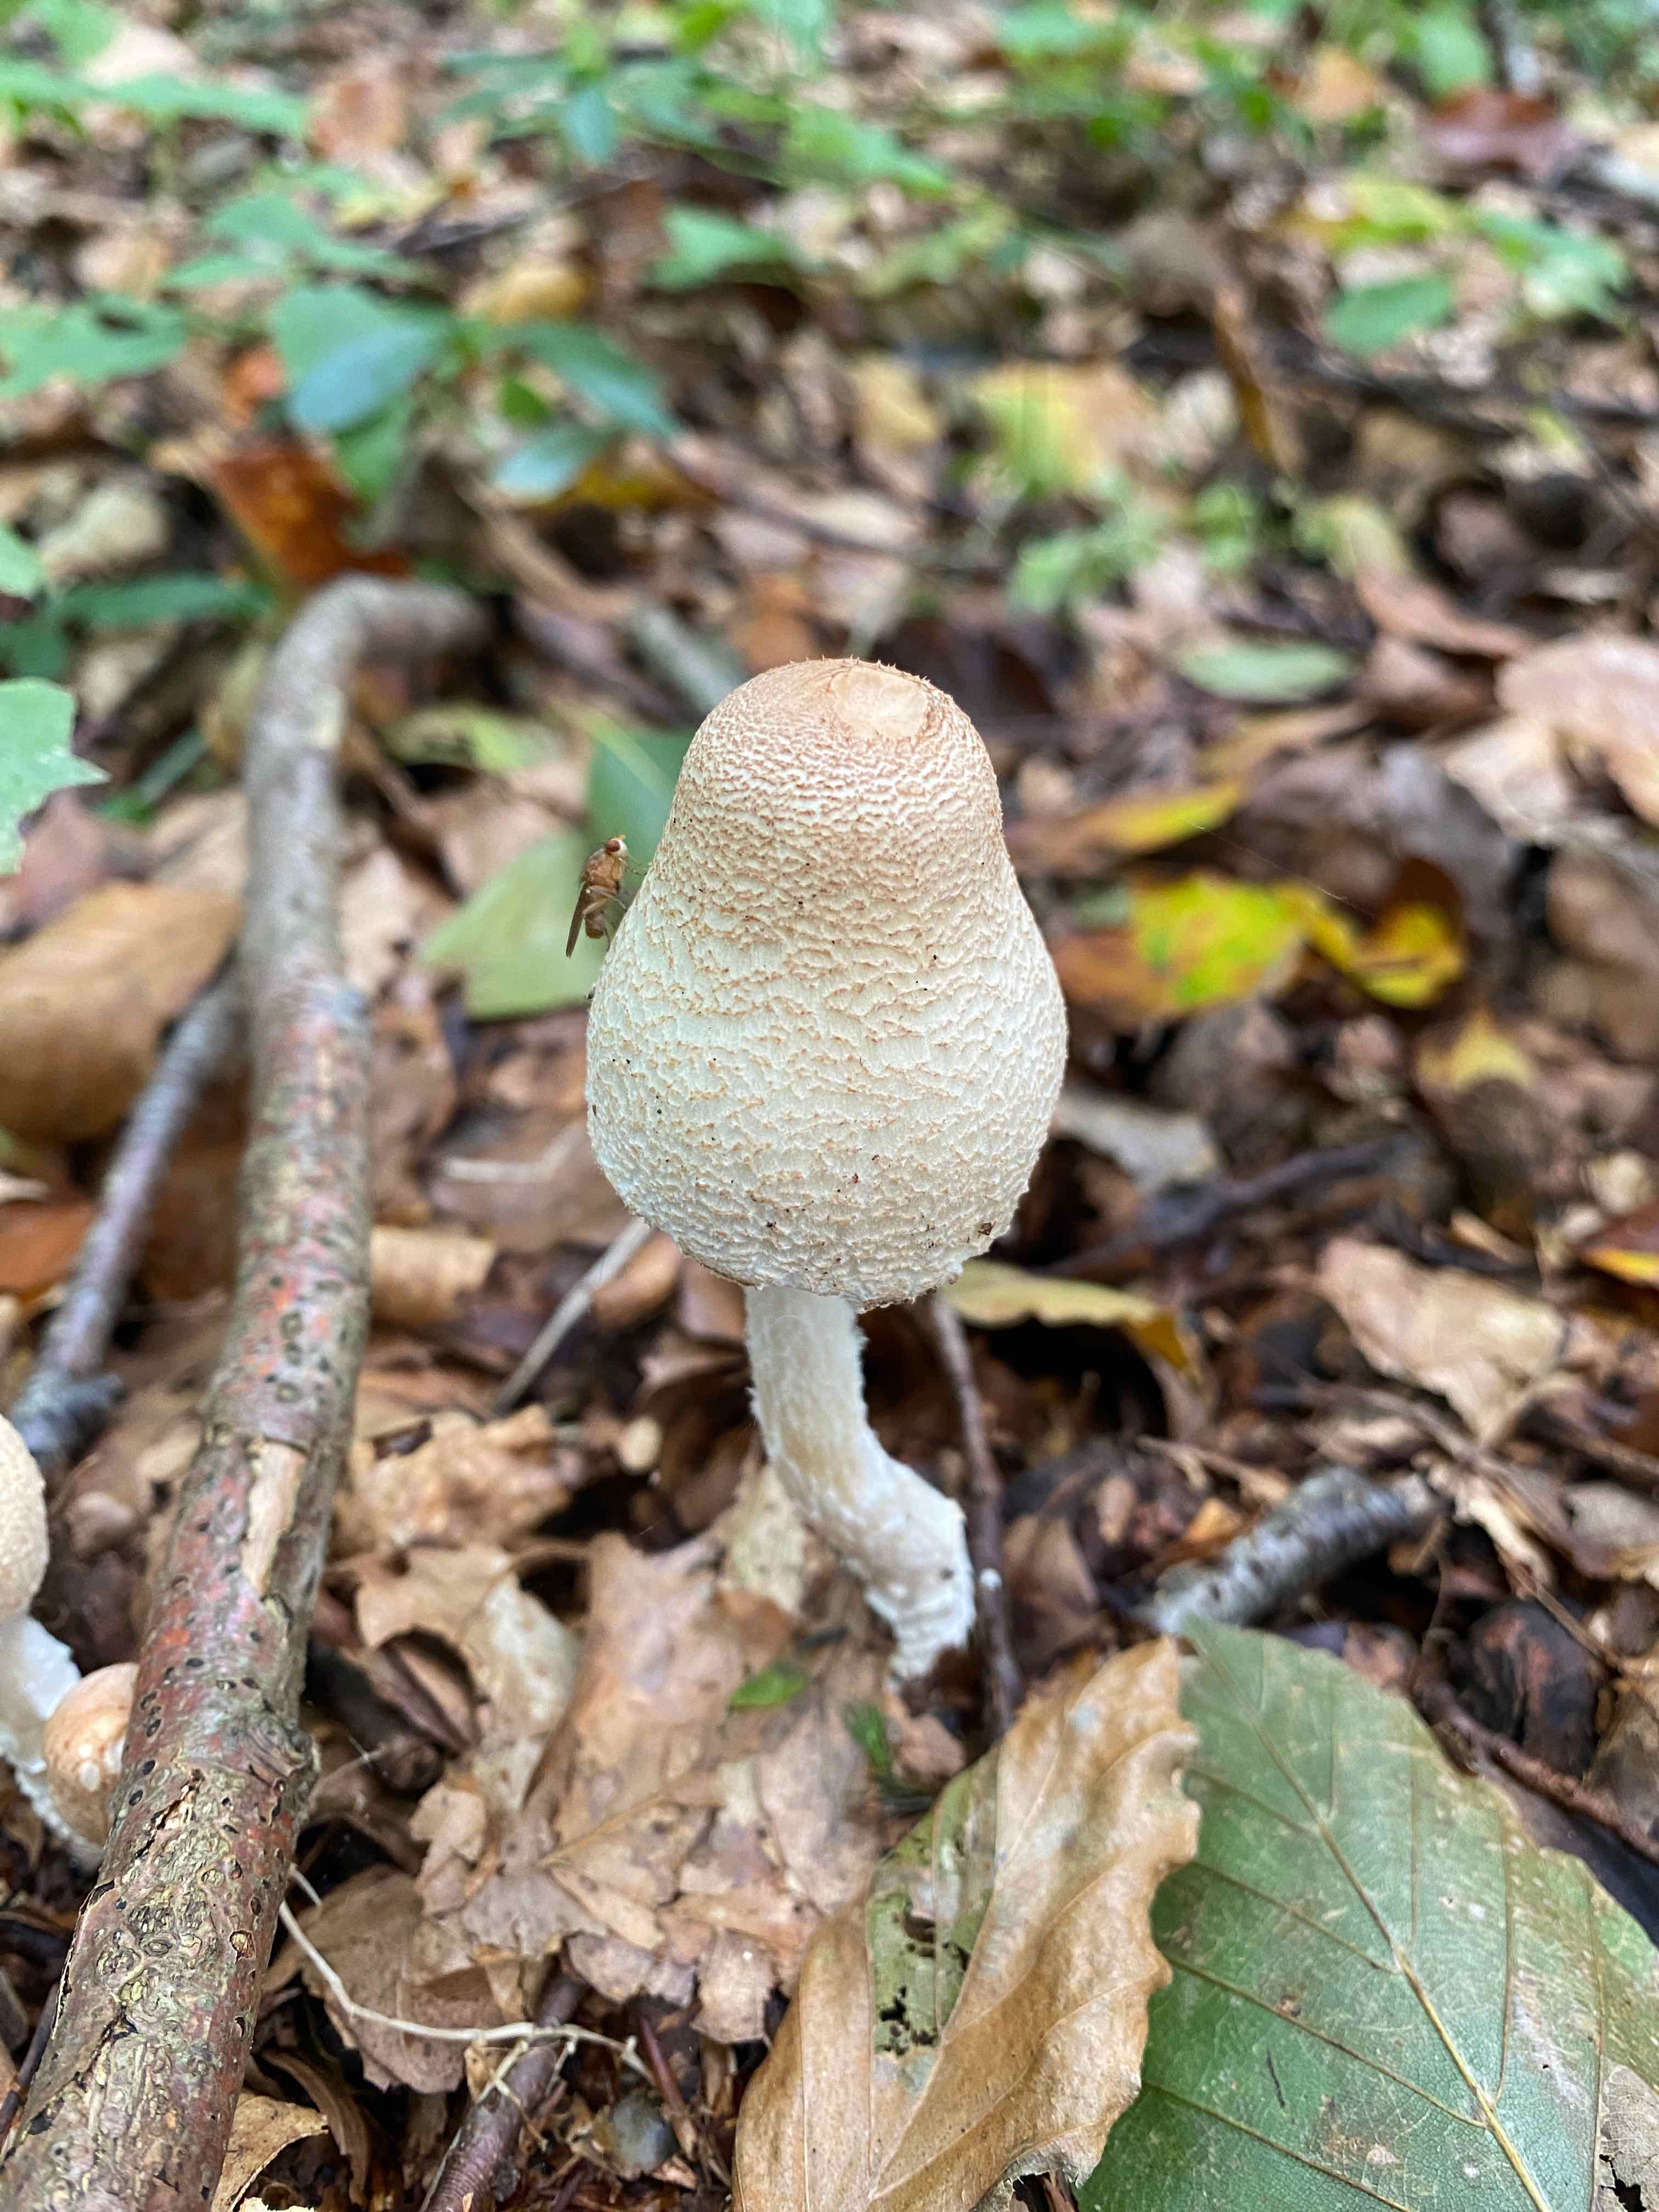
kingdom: Fungi
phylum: Basidiomycota
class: Agaricomycetes
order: Agaricales
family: Agaricaceae
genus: Lepiota
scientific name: Lepiota clypeolaria
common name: flosset parasolhat
